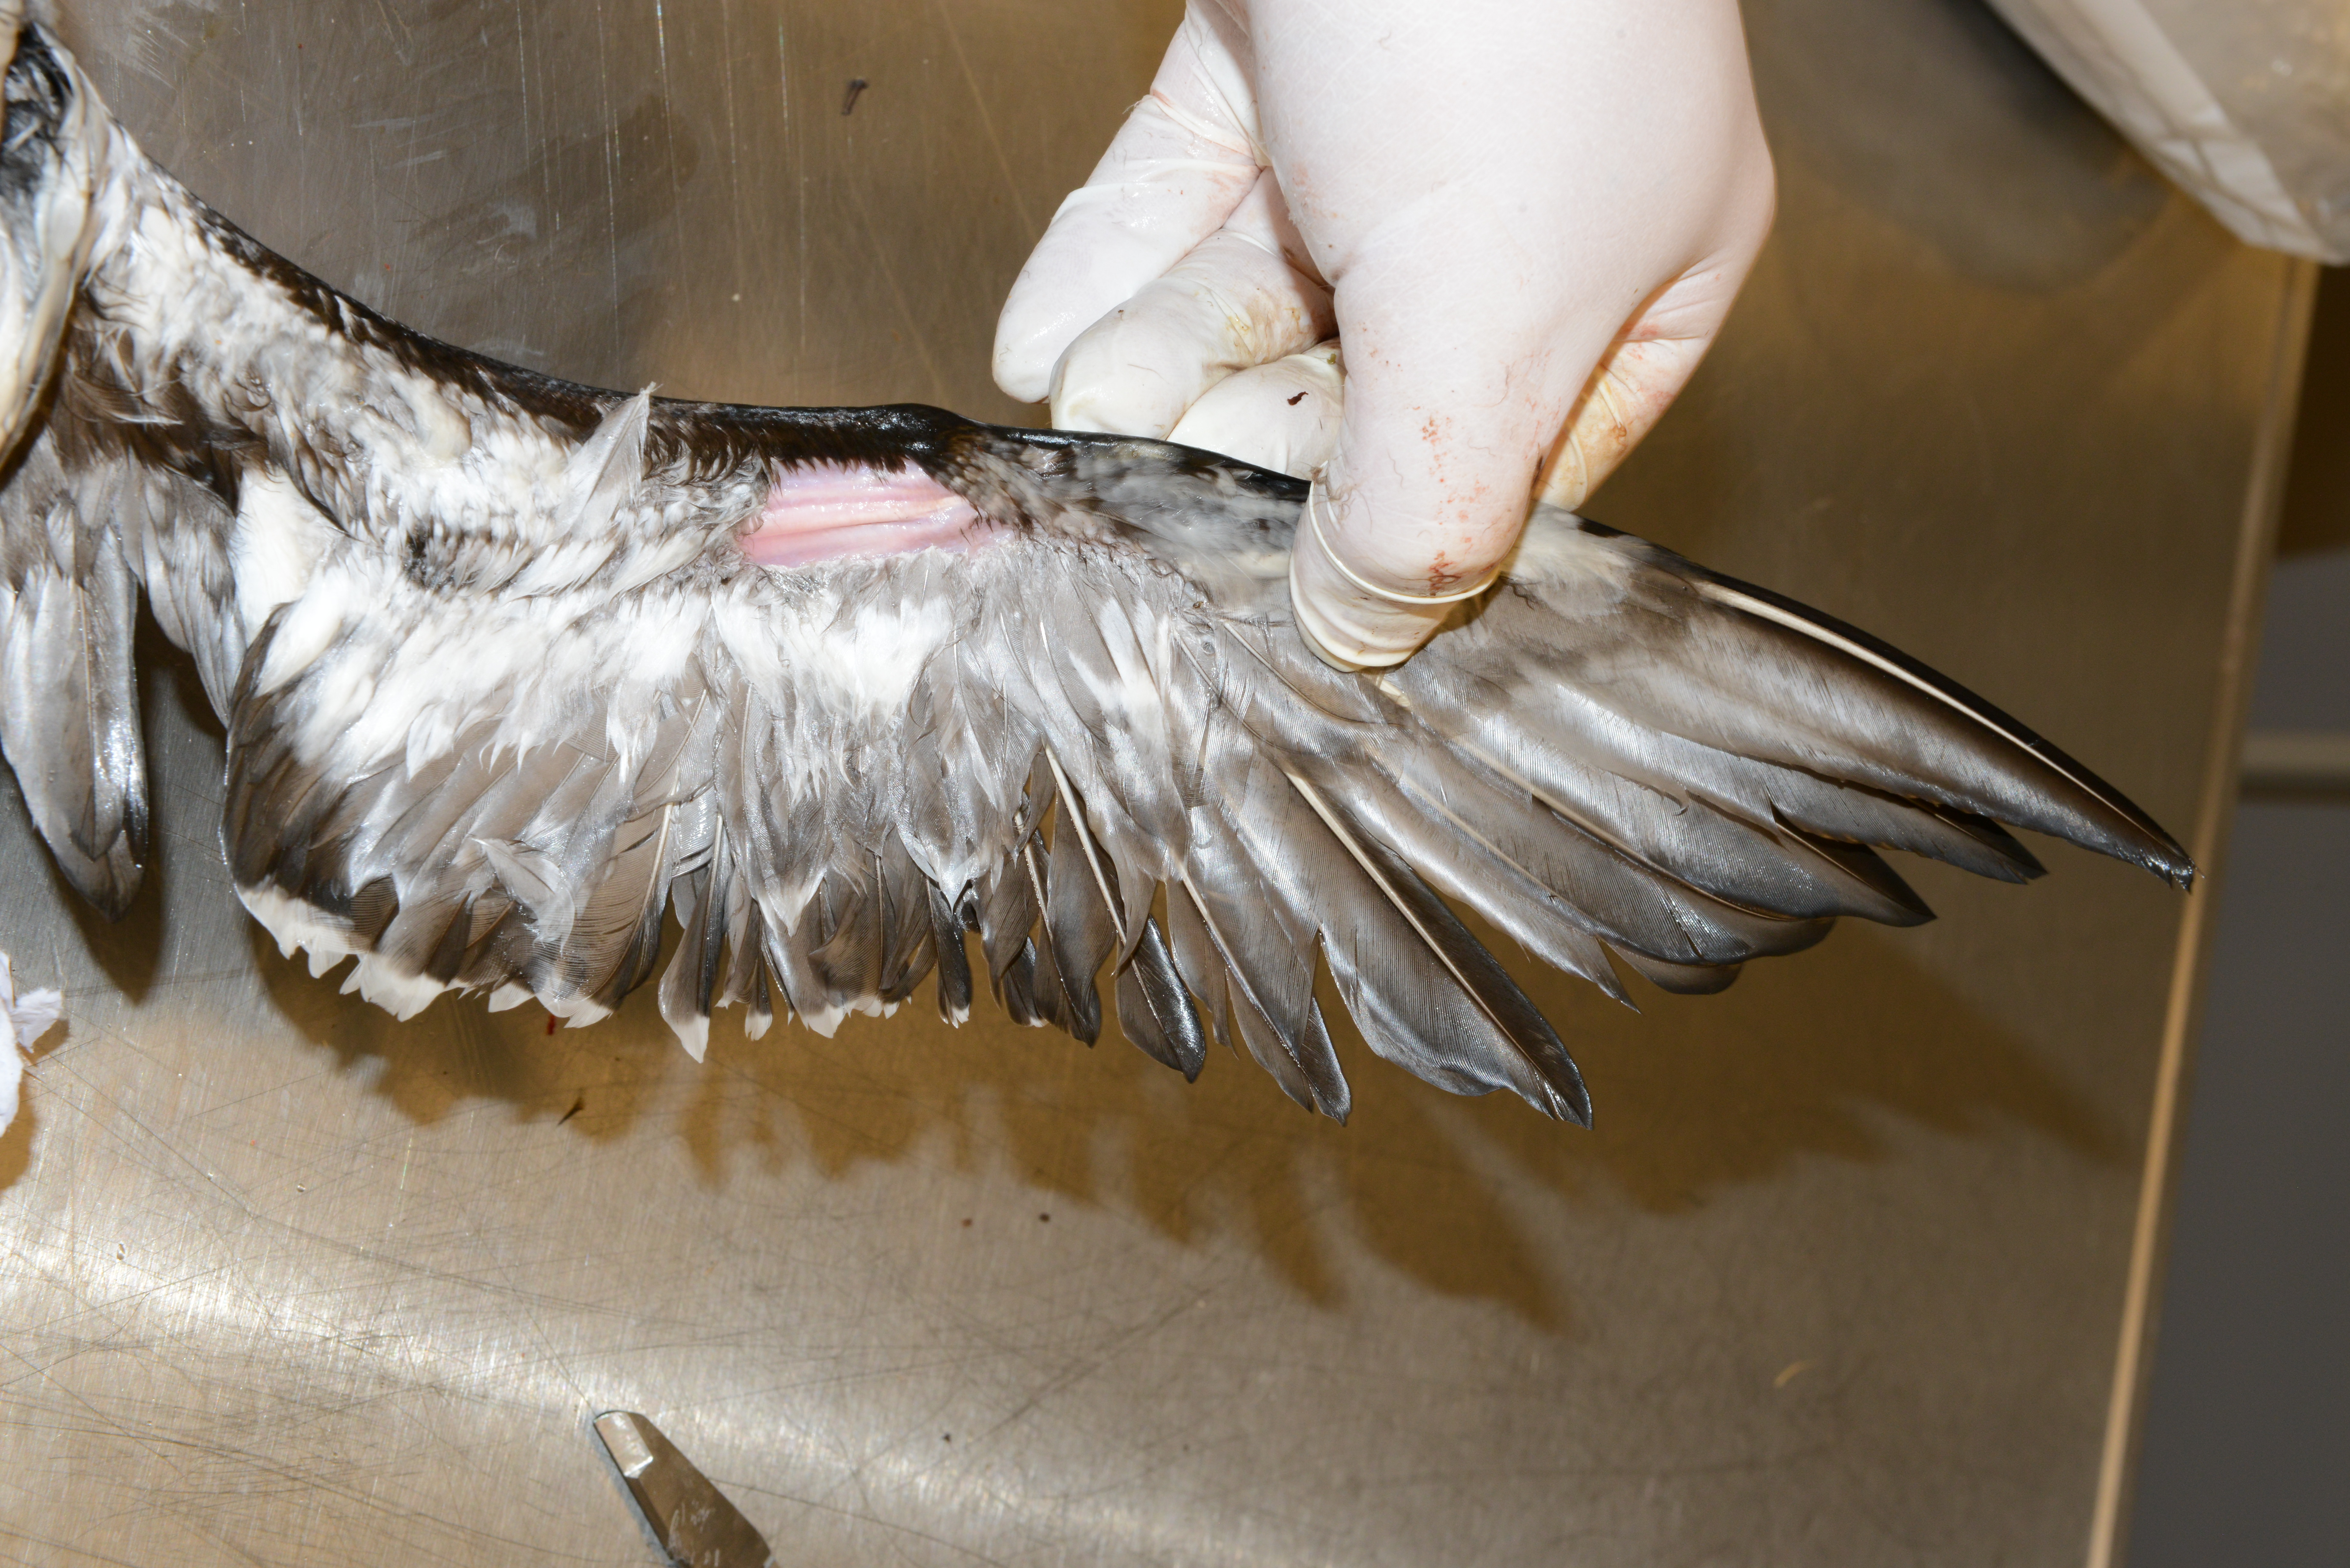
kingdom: Animalia
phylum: Chordata
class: Aves
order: Charadriiformes
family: Alcidae
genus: Uria
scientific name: Uria aalge
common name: Common murre
